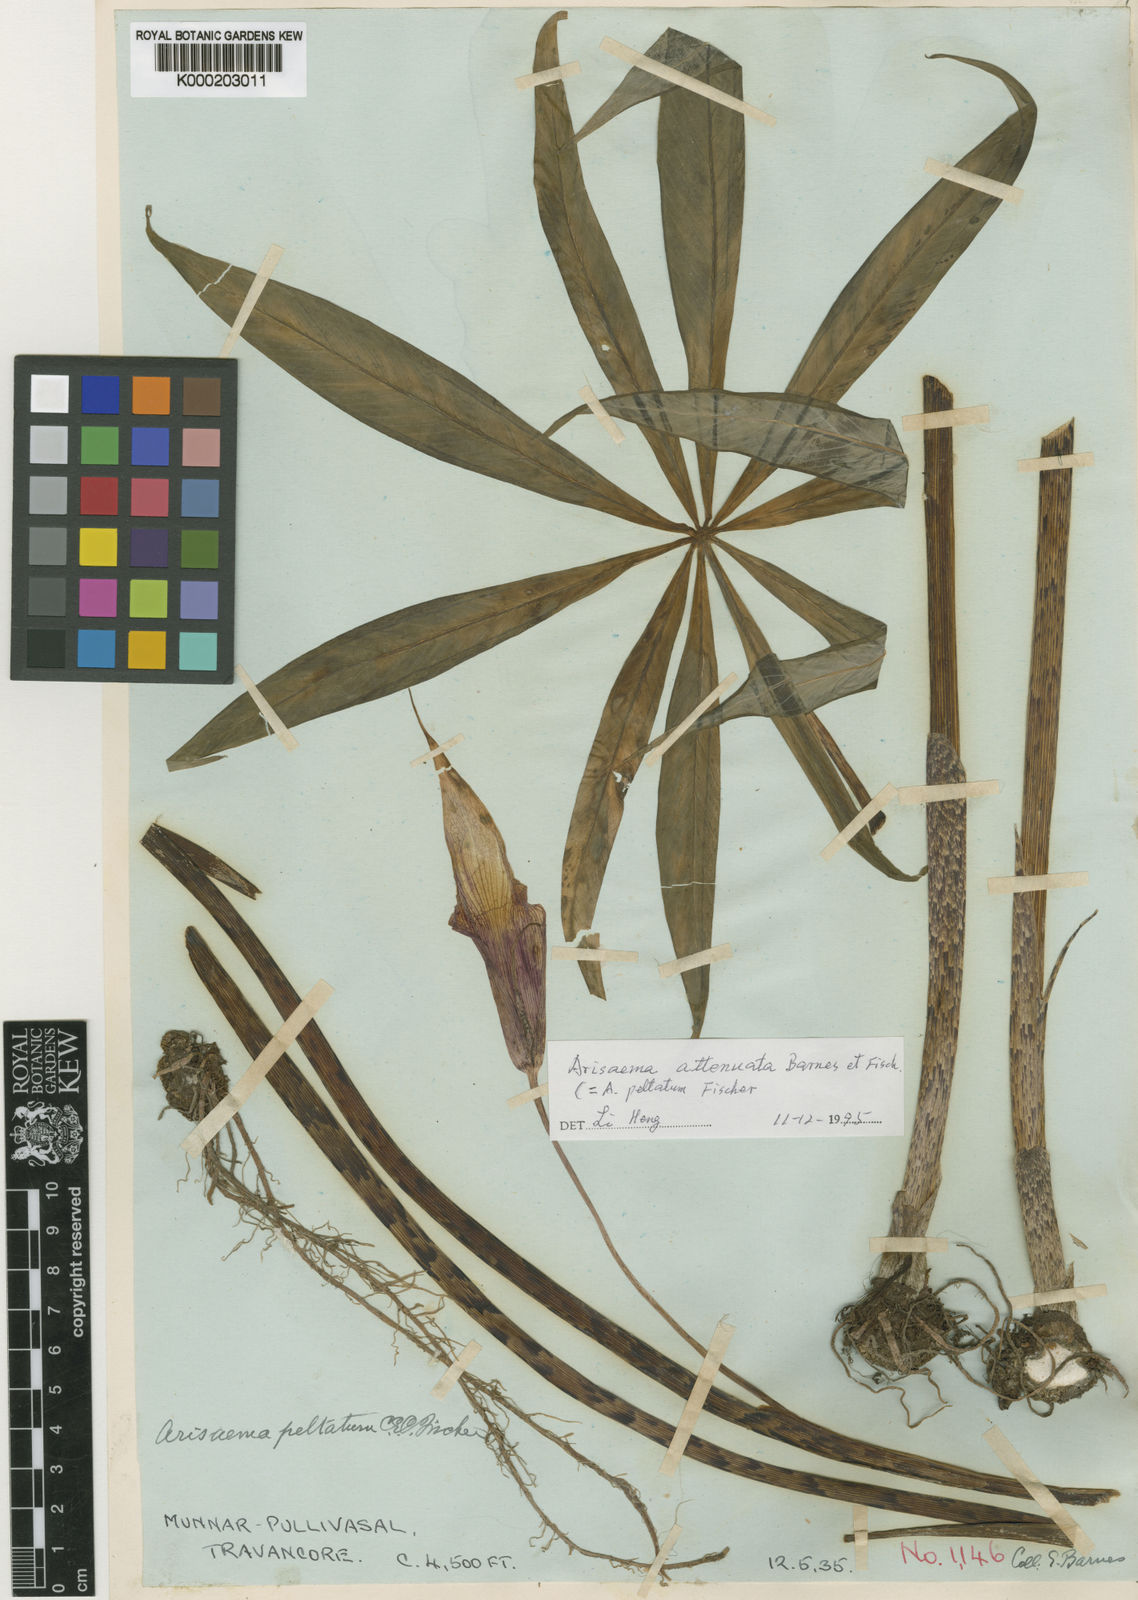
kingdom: Plantae
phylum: Tracheophyta
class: Liliopsida
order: Alismatales
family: Araceae
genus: Arisaema
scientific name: Arisaema attenuatum
